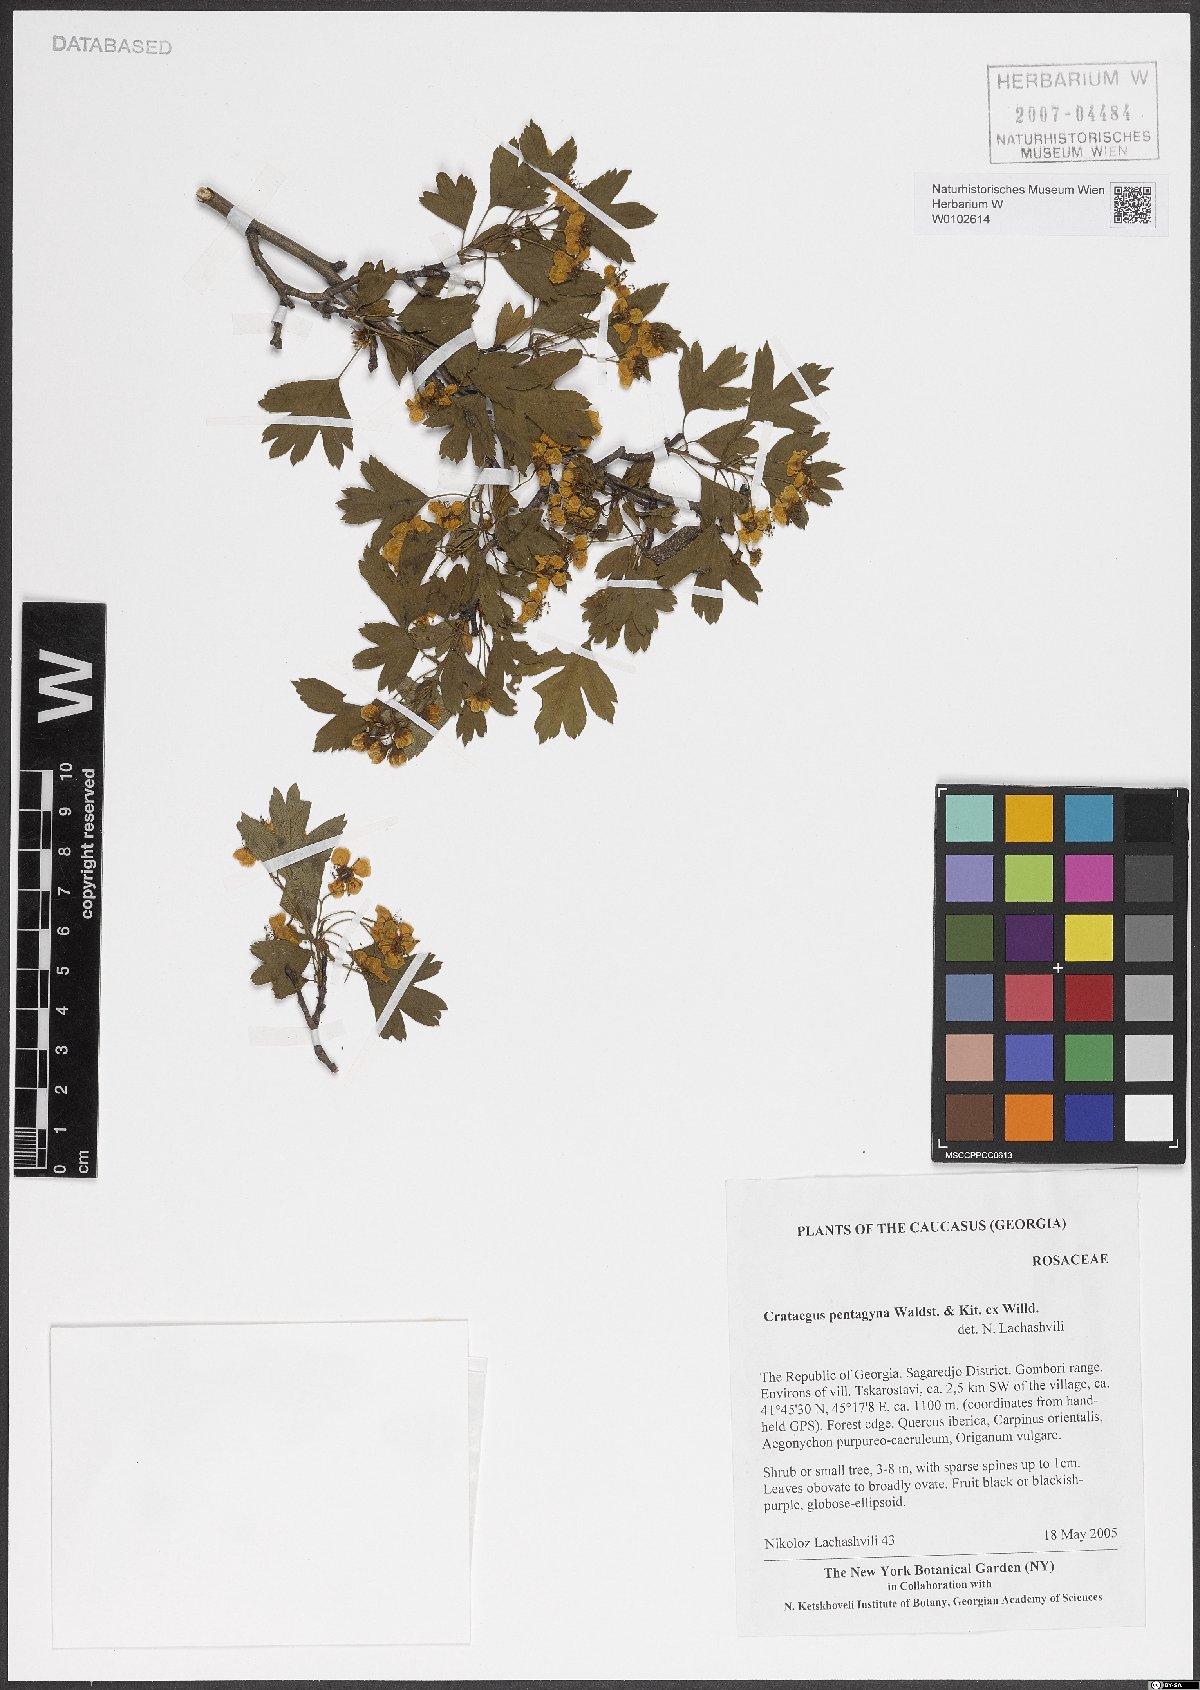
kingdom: Plantae
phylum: Tracheophyta
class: Magnoliopsida
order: Rosales
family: Rosaceae
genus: Crataegus
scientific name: Crataegus pentagyna
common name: Small-flowered black hawthorn
